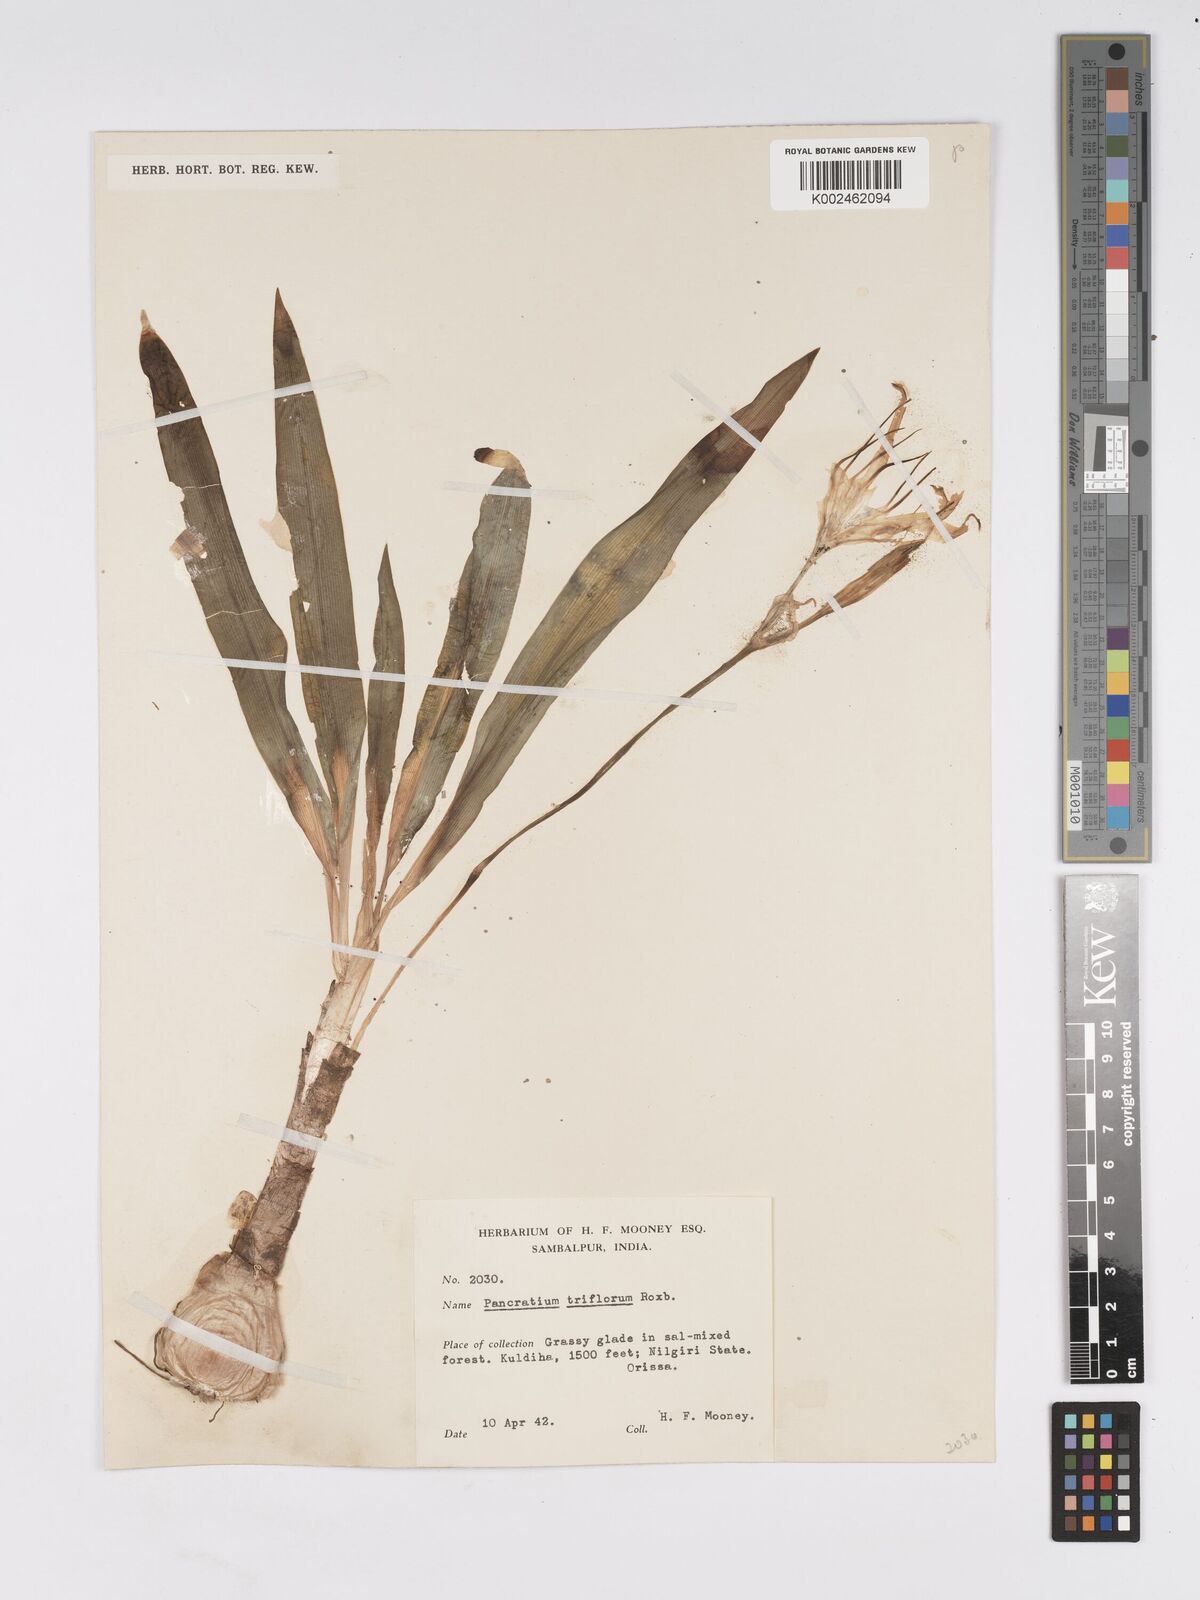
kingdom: Plantae
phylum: Tracheophyta
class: Liliopsida
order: Asparagales
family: Amaryllidaceae
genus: Pancratium
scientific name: Pancratium triflorum
